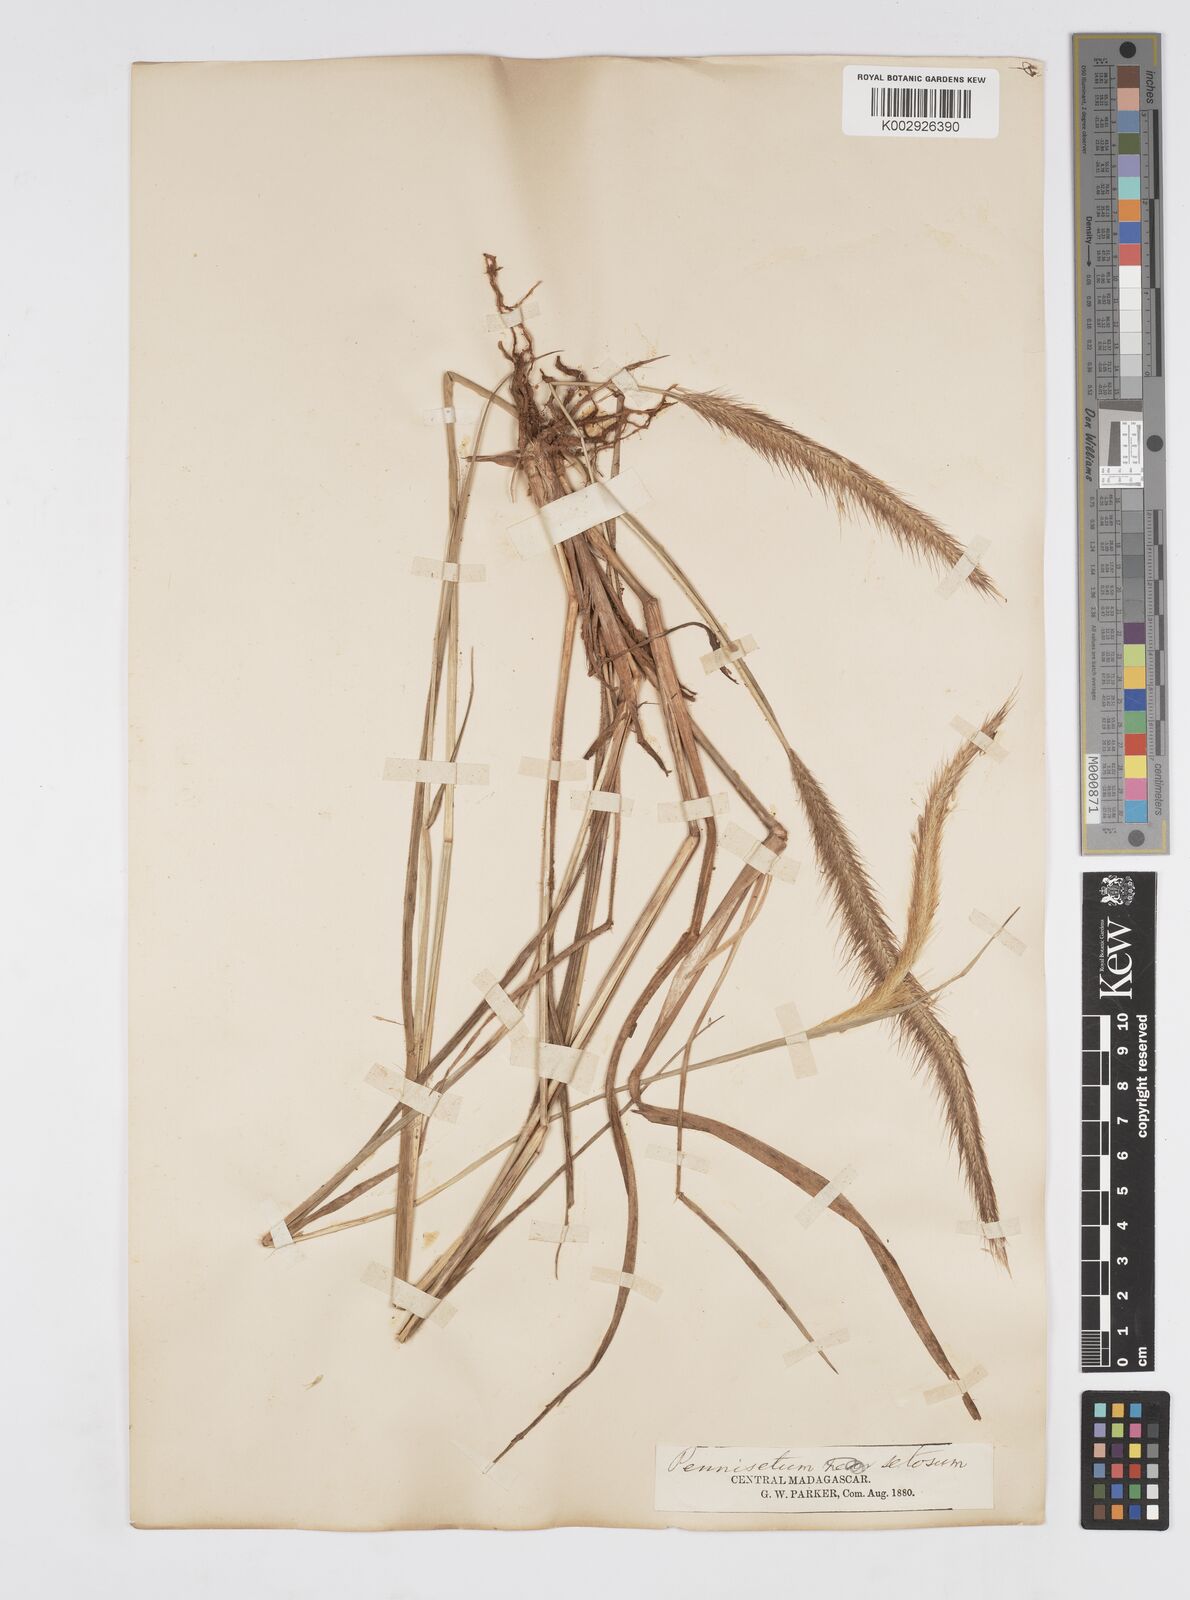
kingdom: Plantae
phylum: Tracheophyta
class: Liliopsida
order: Poales
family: Poaceae
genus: Setaria
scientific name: Setaria parviflora
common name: Knotroot bristle-grass
